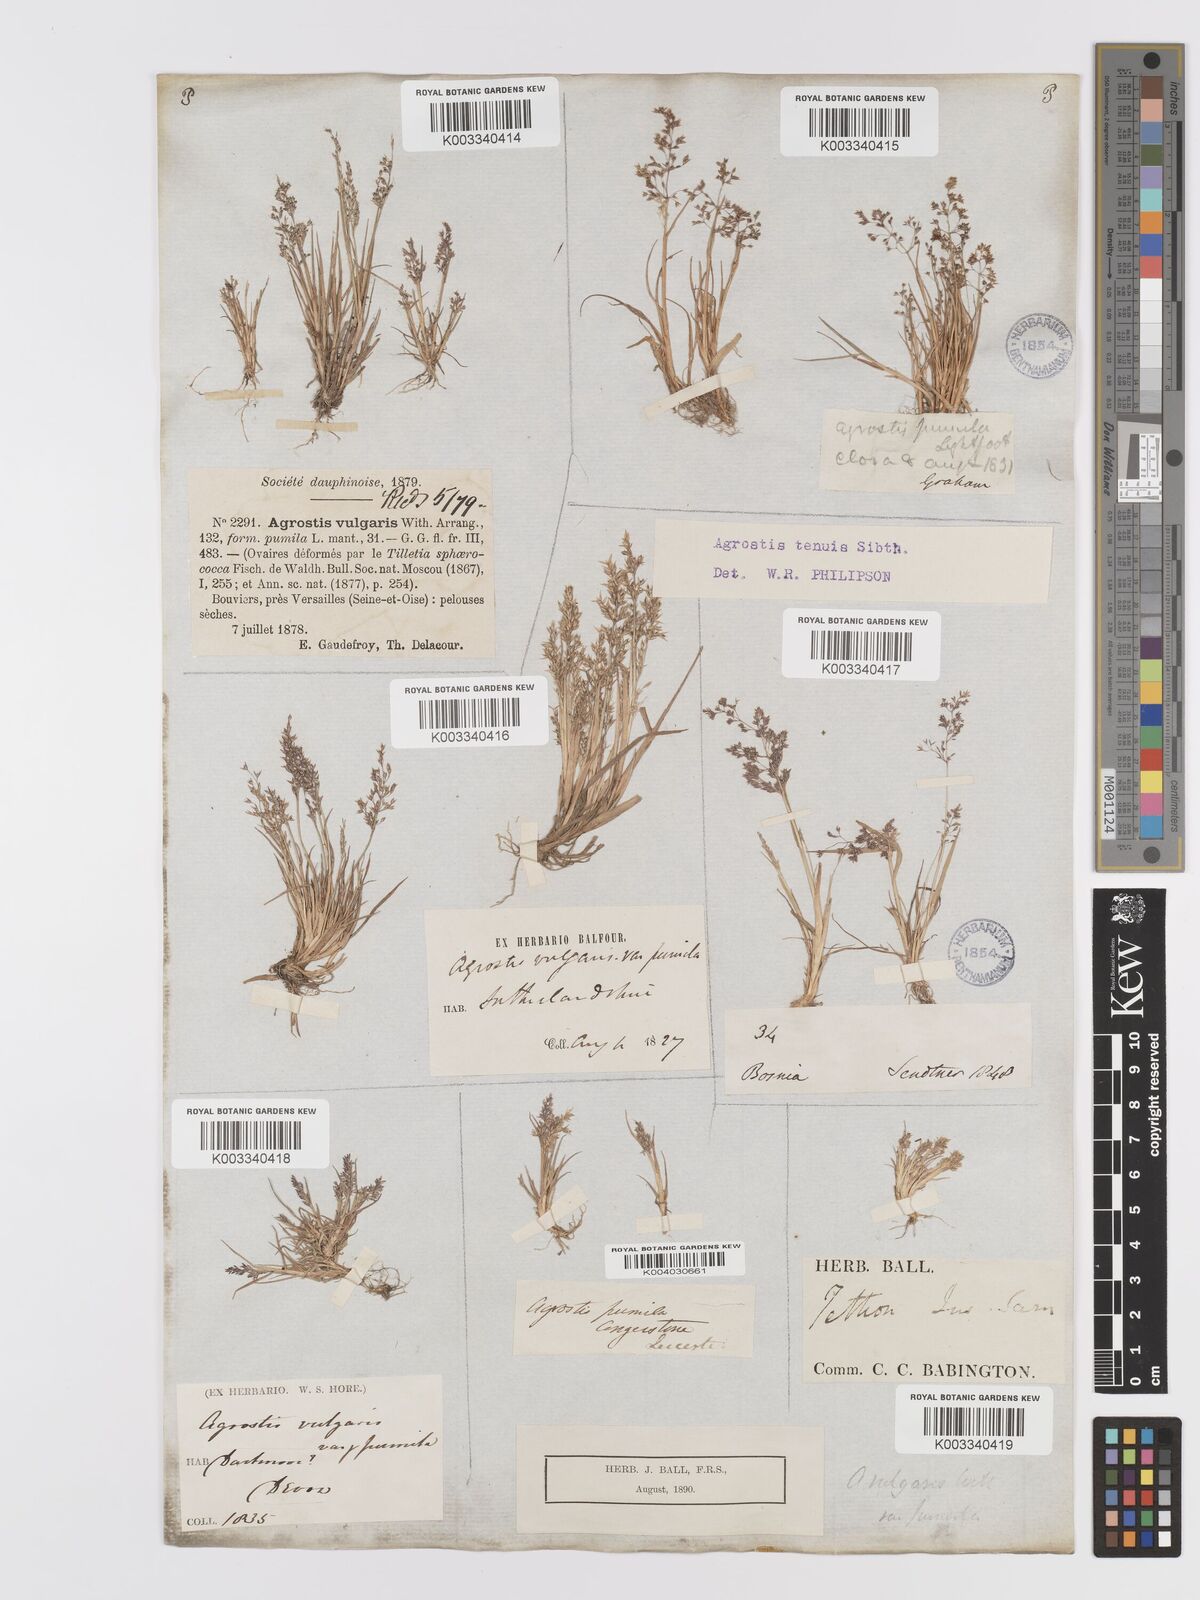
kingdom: Plantae
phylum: Tracheophyta
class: Liliopsida
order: Poales
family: Poaceae
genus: Agrostis
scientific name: Agrostis capillaris
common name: Colonial bentgrass
